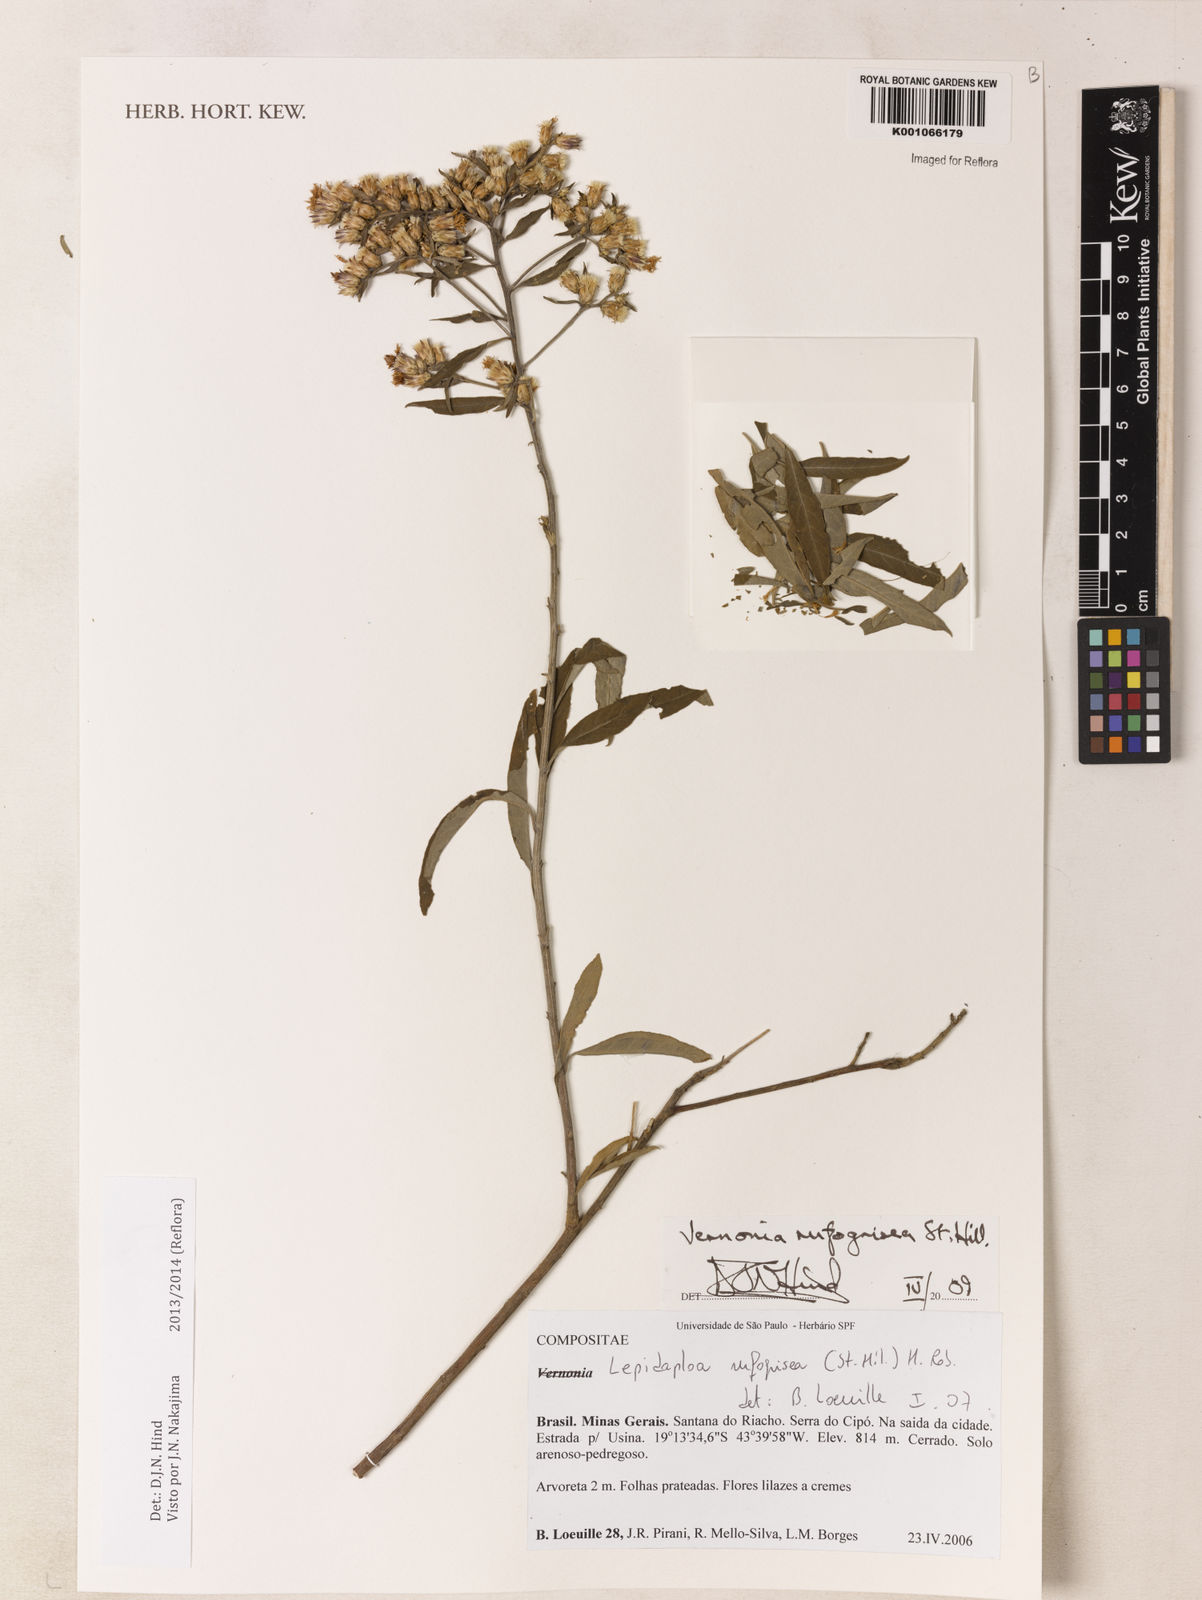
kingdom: Plantae
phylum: Tracheophyta
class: Magnoliopsida
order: Asterales
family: Asteraceae
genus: Lepidaploa
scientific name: Lepidaploa rufogrisea
